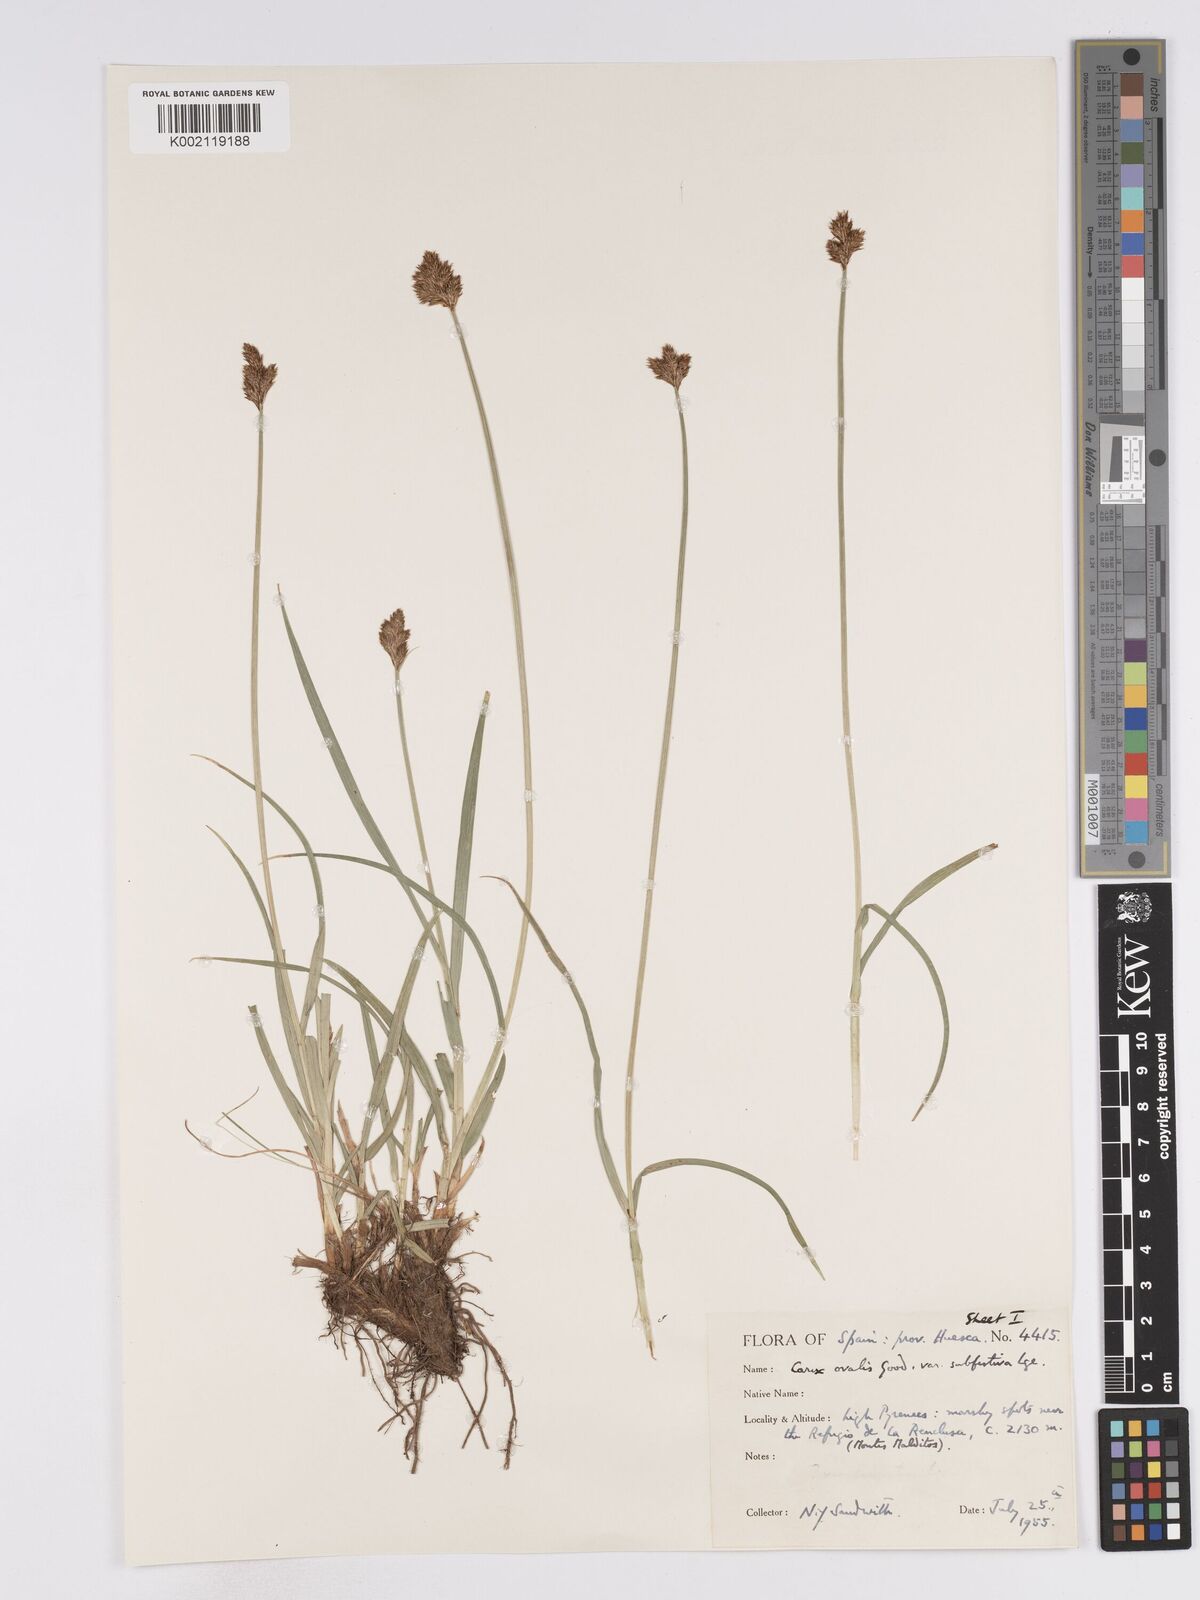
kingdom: Plantae
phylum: Tracheophyta
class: Liliopsida
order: Poales
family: Cyperaceae
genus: Carex
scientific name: Carex leporina
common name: Oval sedge
